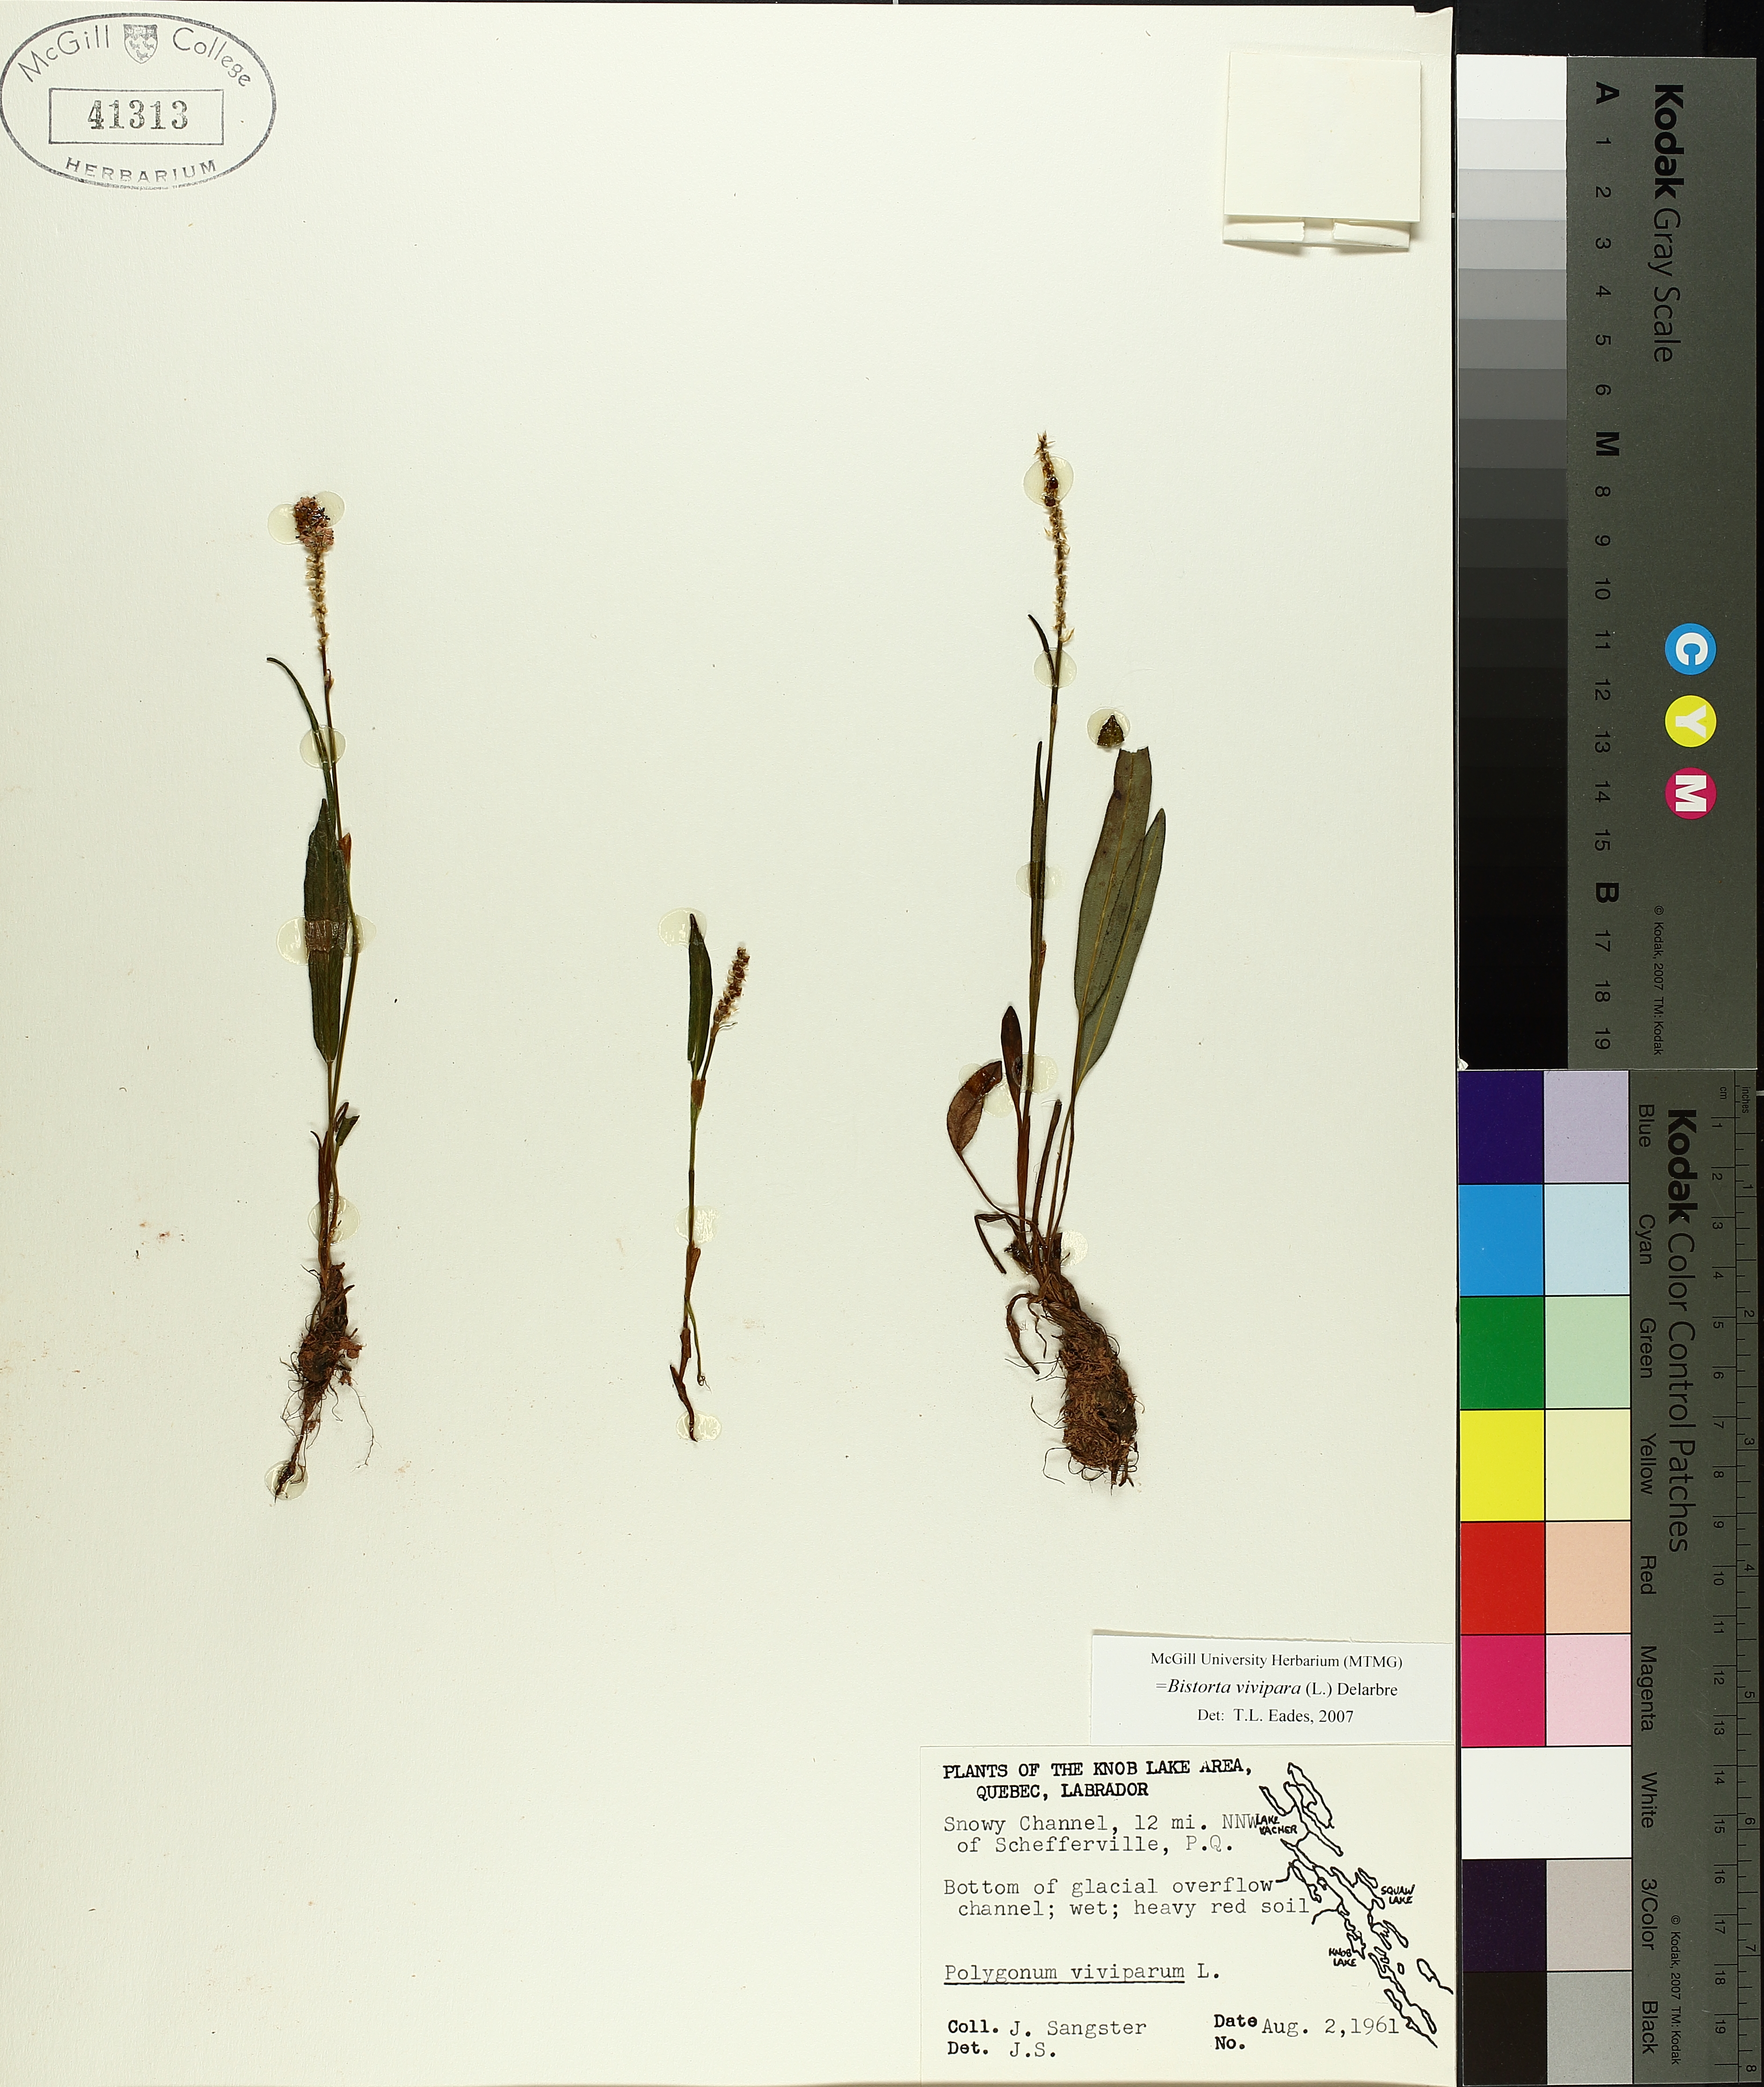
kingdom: Plantae
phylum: Tracheophyta
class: Magnoliopsida
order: Caryophyllales
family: Polygonaceae
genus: Bistorta
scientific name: Bistorta vivipara
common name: Alpine bistort
